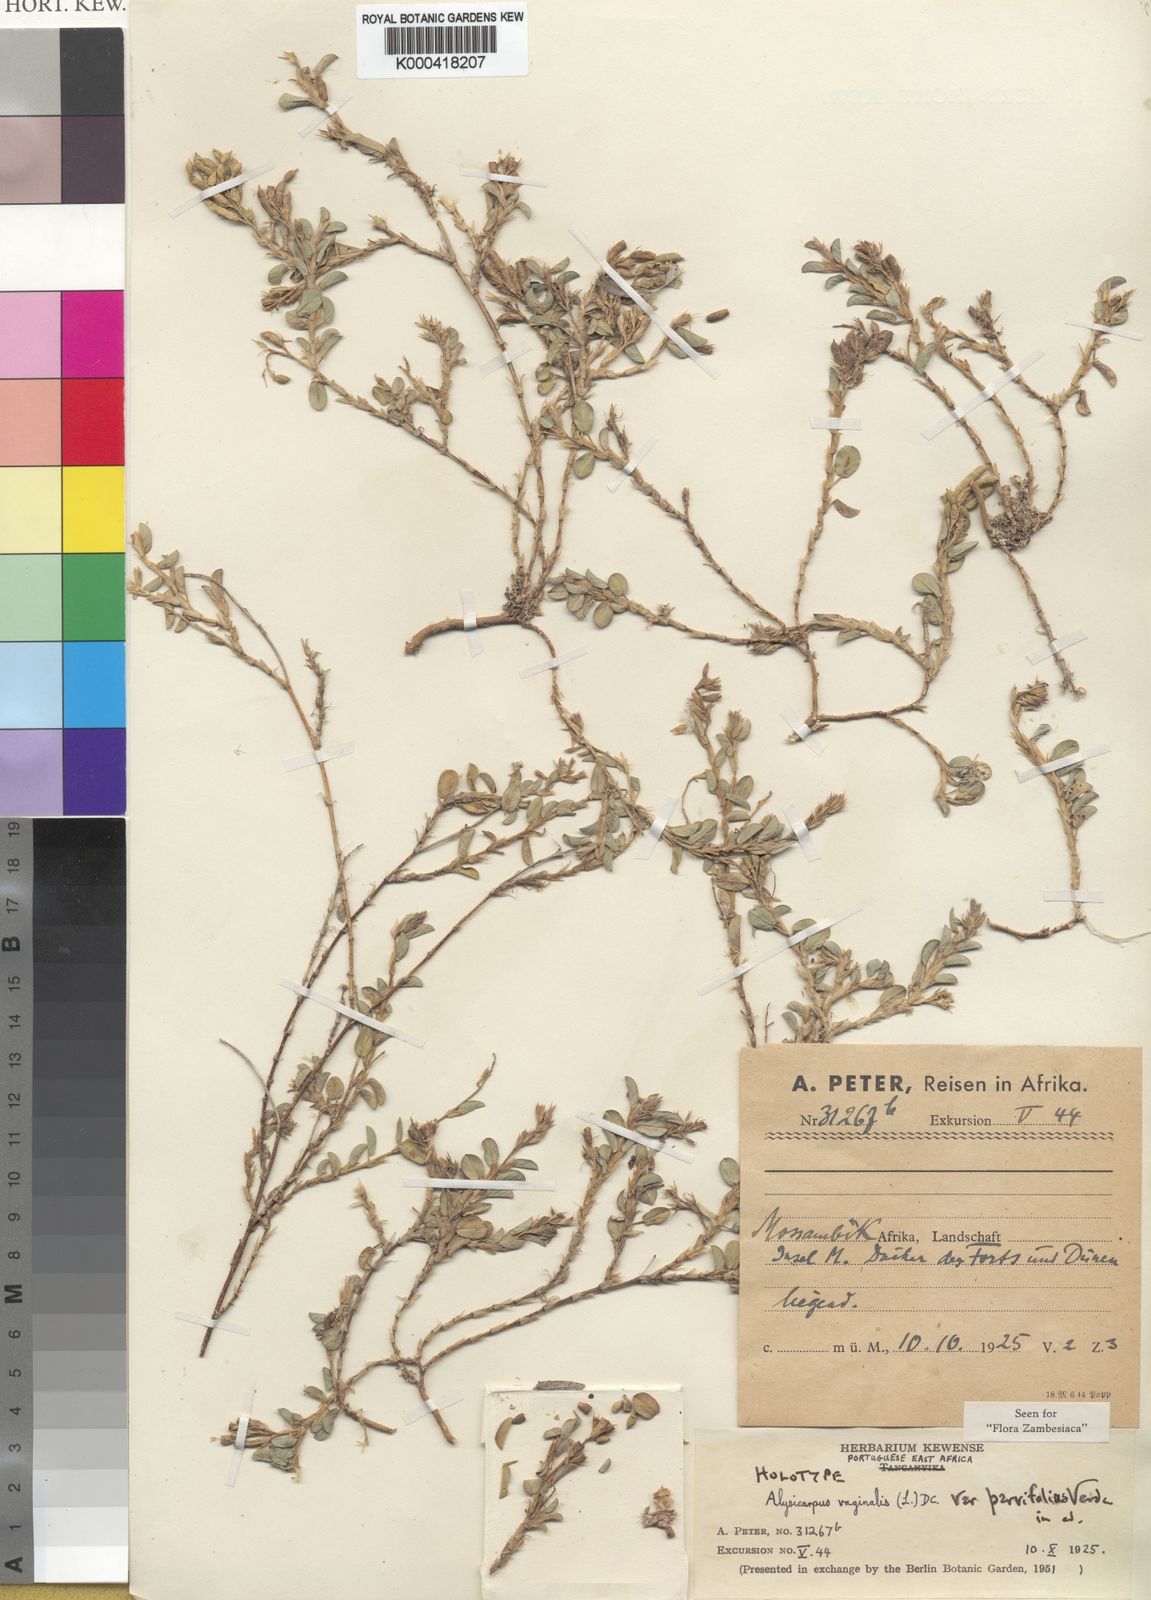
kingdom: Plantae
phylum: Tracheophyta
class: Magnoliopsida
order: Fabales
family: Fabaceae
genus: Alysicarpus
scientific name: Alysicarpus vaginalis
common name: White moneywort
